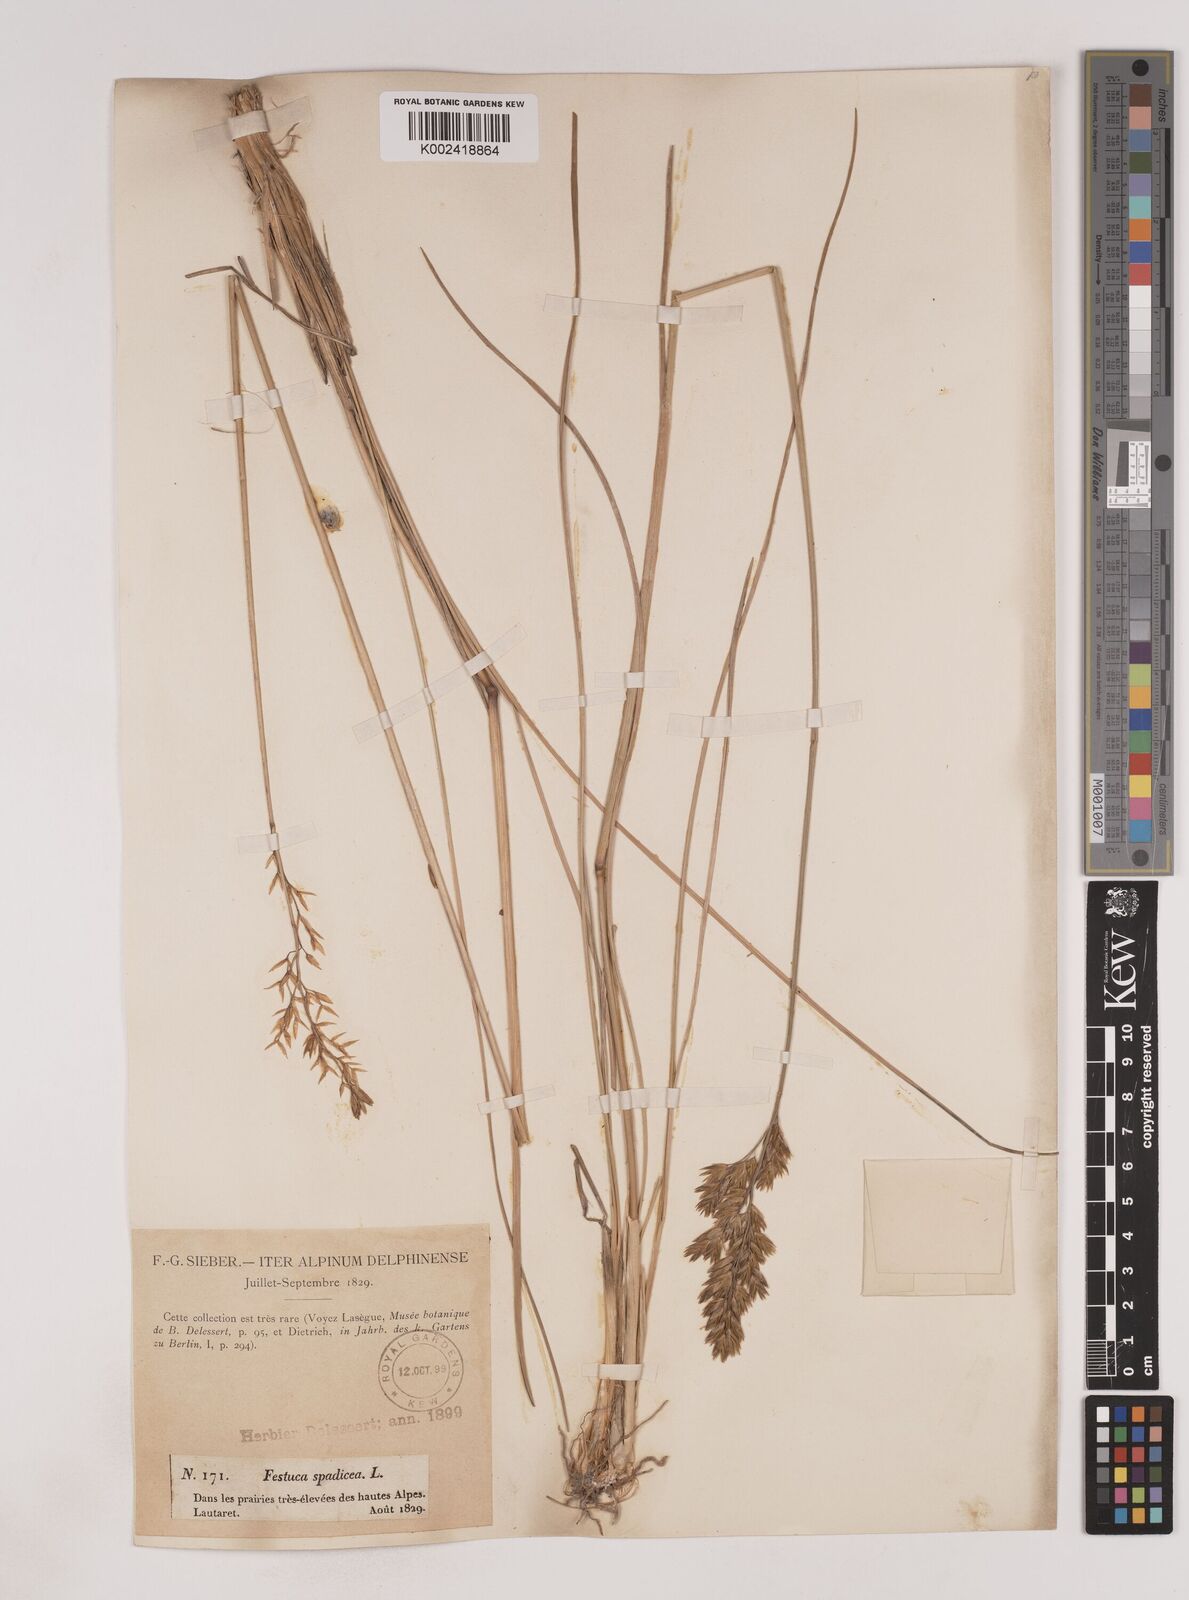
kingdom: Plantae
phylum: Tracheophyta
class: Liliopsida
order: Poales
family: Poaceae
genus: Patzkea
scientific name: Patzkea paniculata
